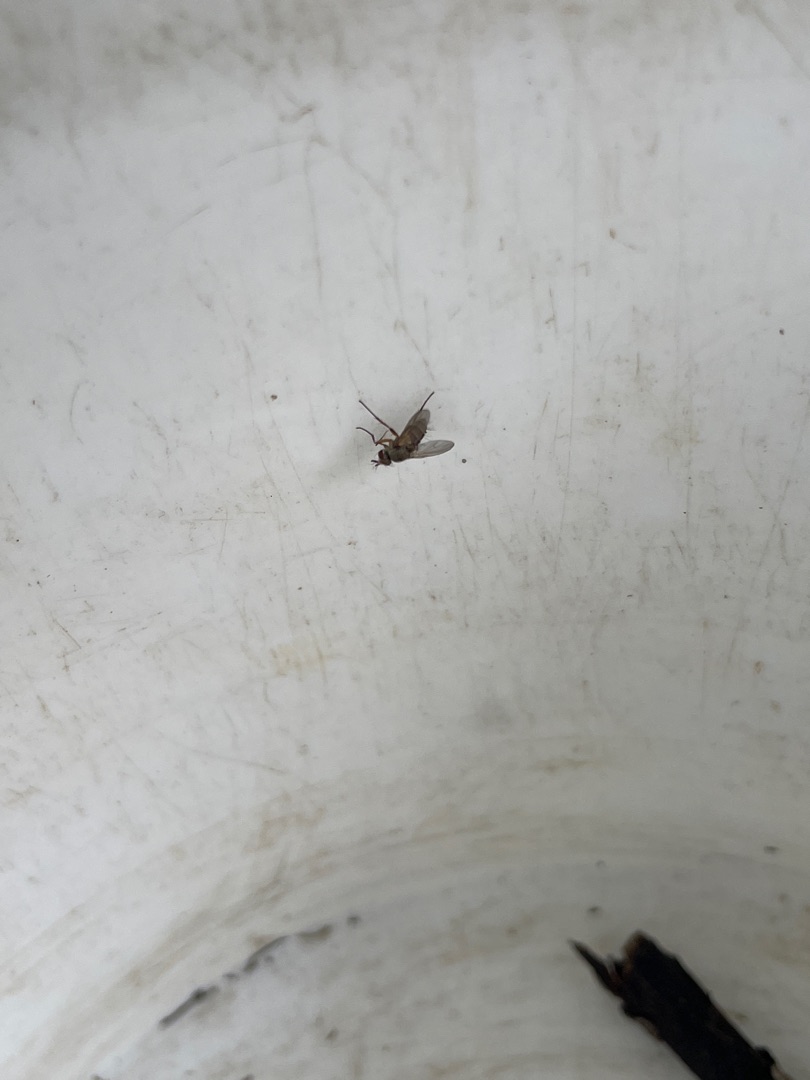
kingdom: Animalia
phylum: Arthropoda
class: Insecta
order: Diptera
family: Tachinidae
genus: Siphona
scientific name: Siphona
